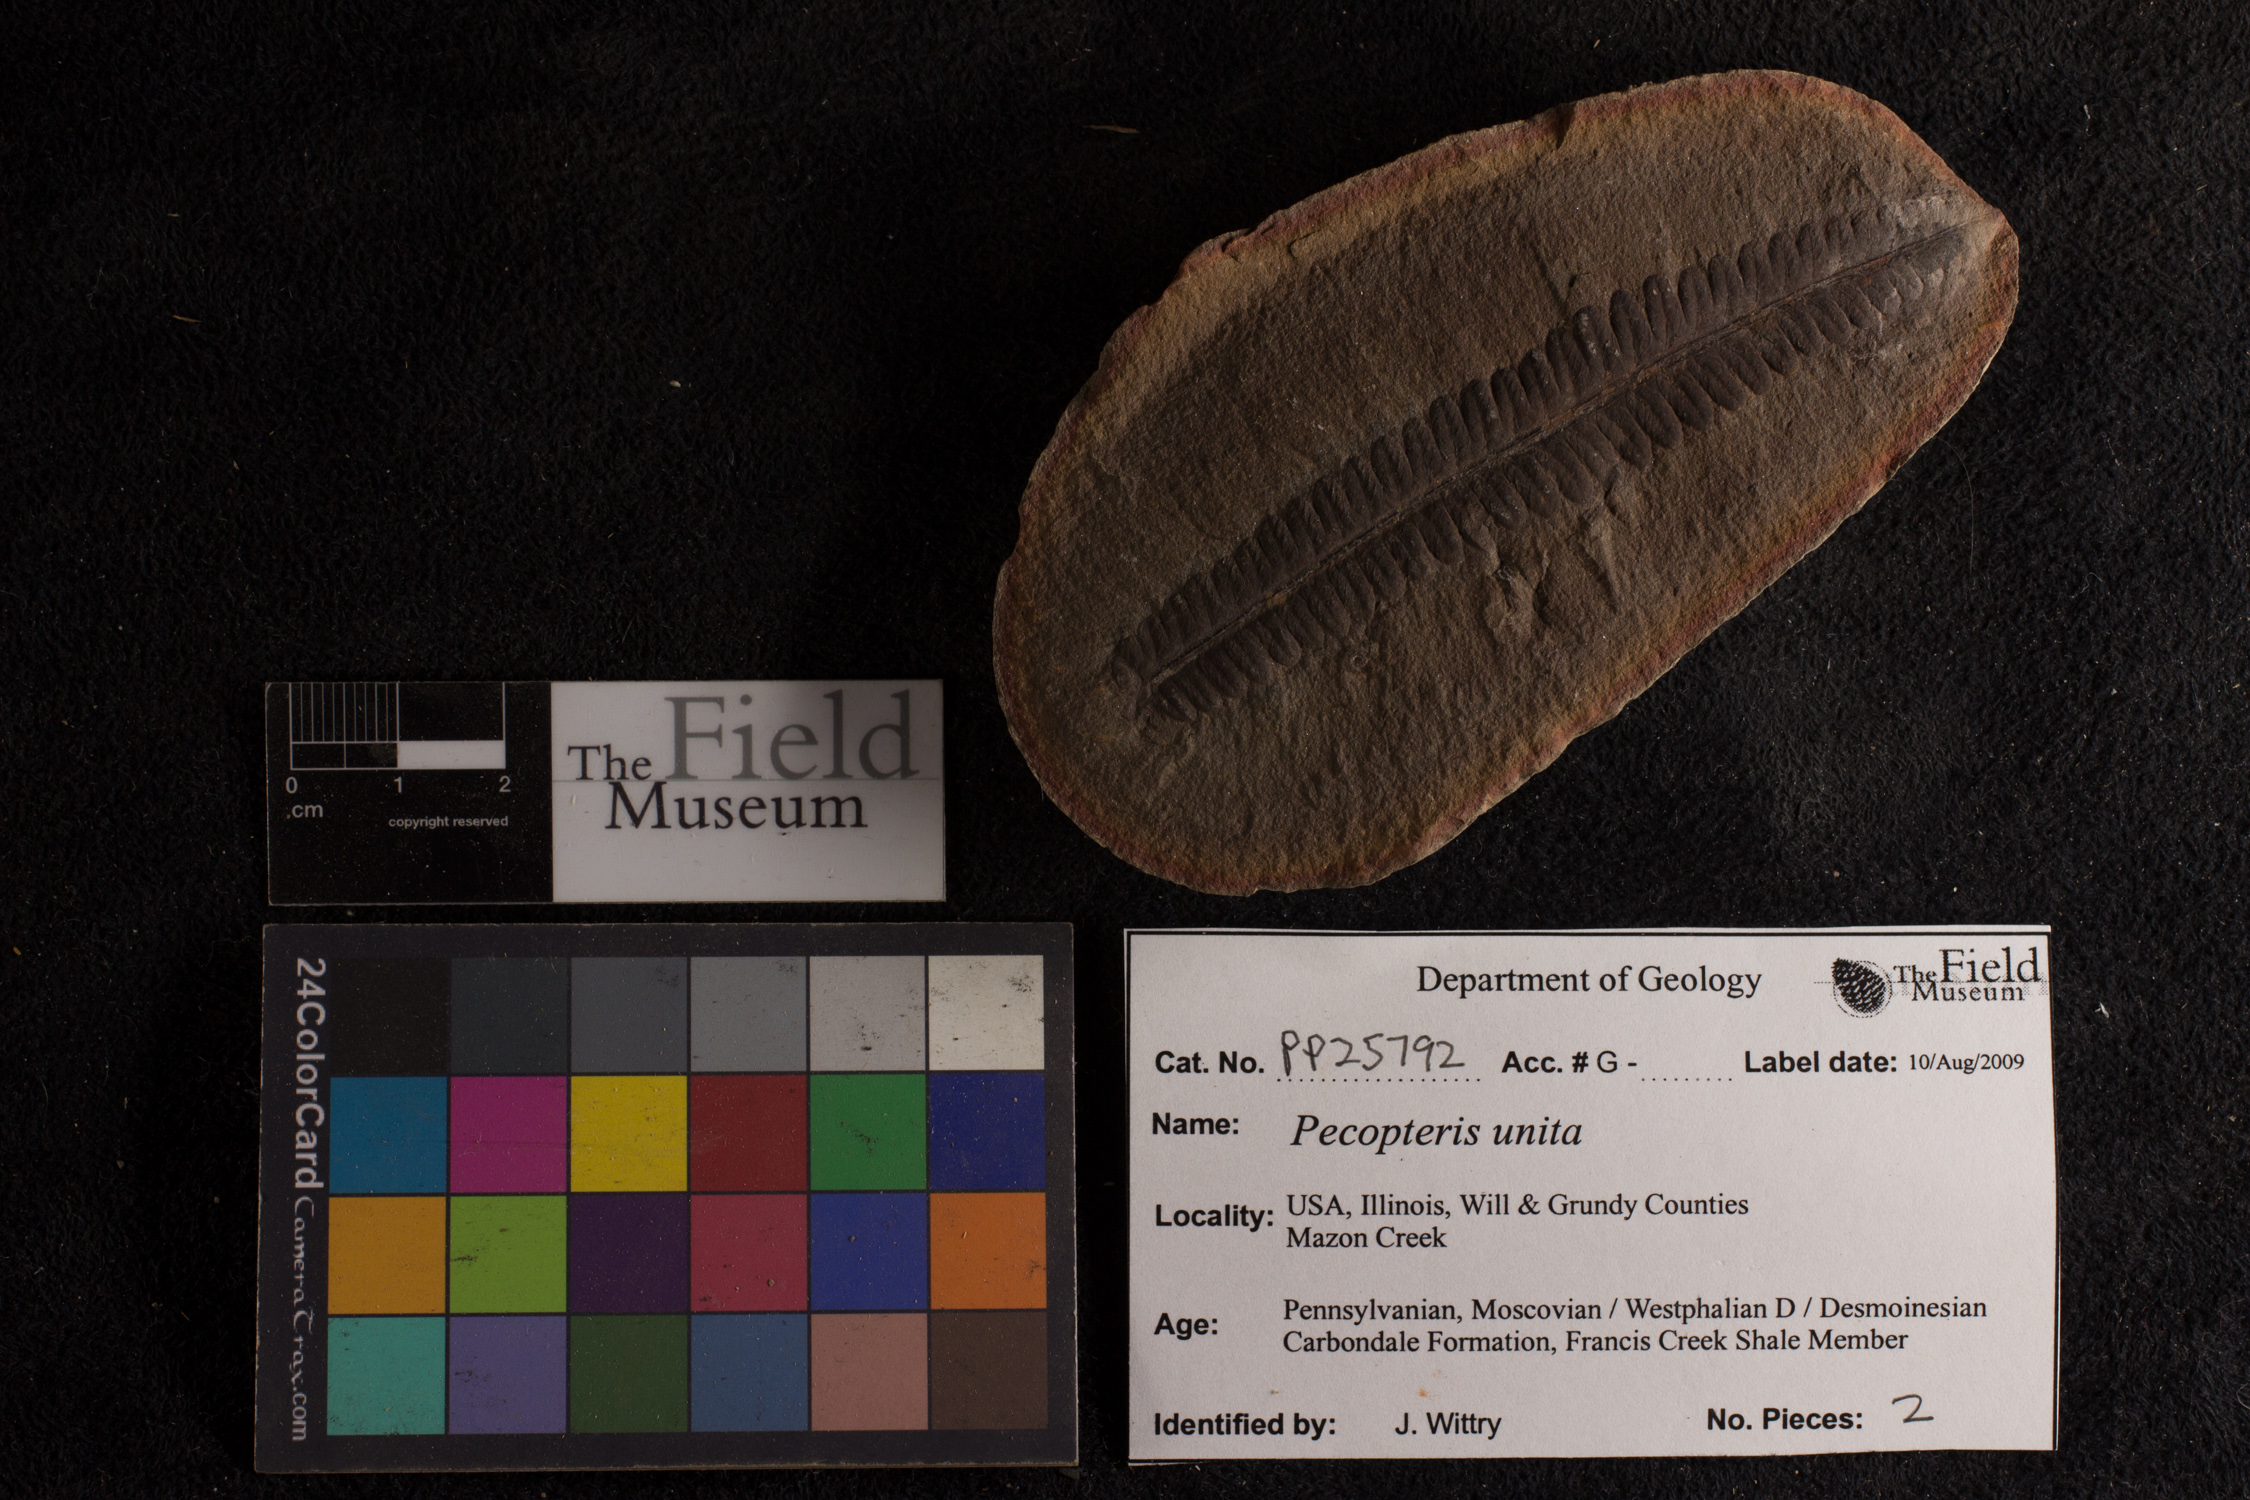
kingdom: Plantae
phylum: Tracheophyta
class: Polypodiopsida
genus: Diplazites
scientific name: Diplazites
